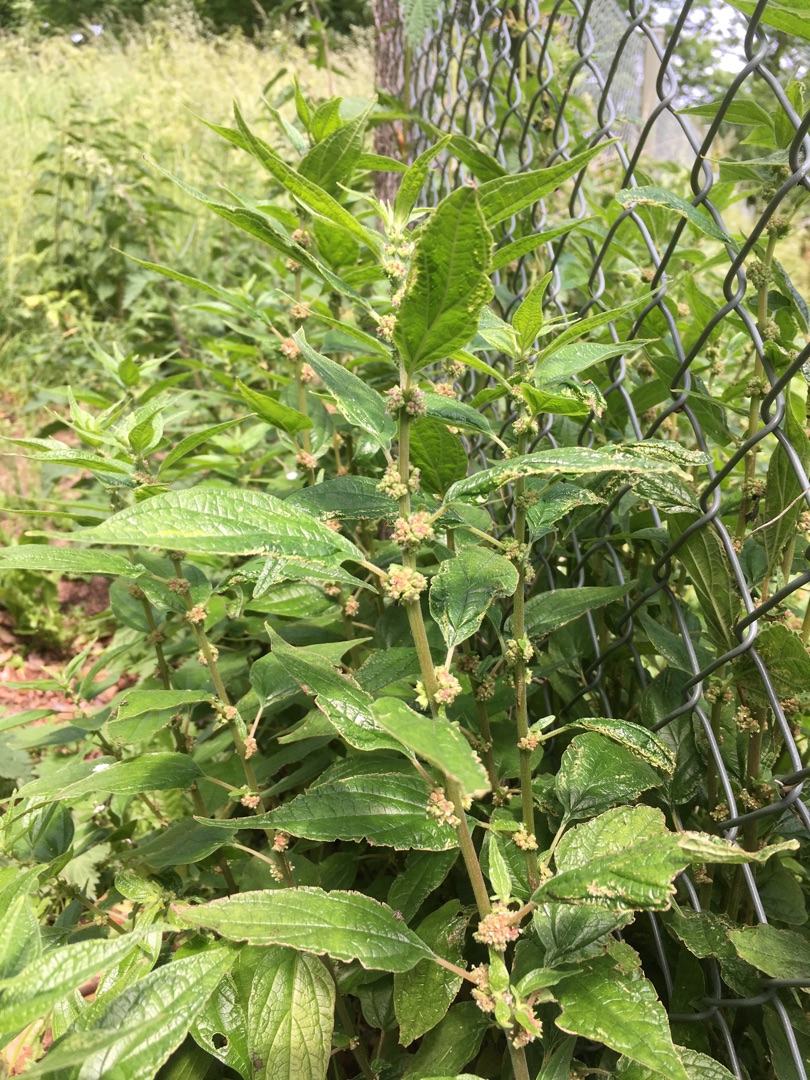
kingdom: Plantae
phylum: Tracheophyta
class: Magnoliopsida
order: Rosales
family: Urticaceae
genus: Parietaria
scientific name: Parietaria officinalis
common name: Almindelig springknap
